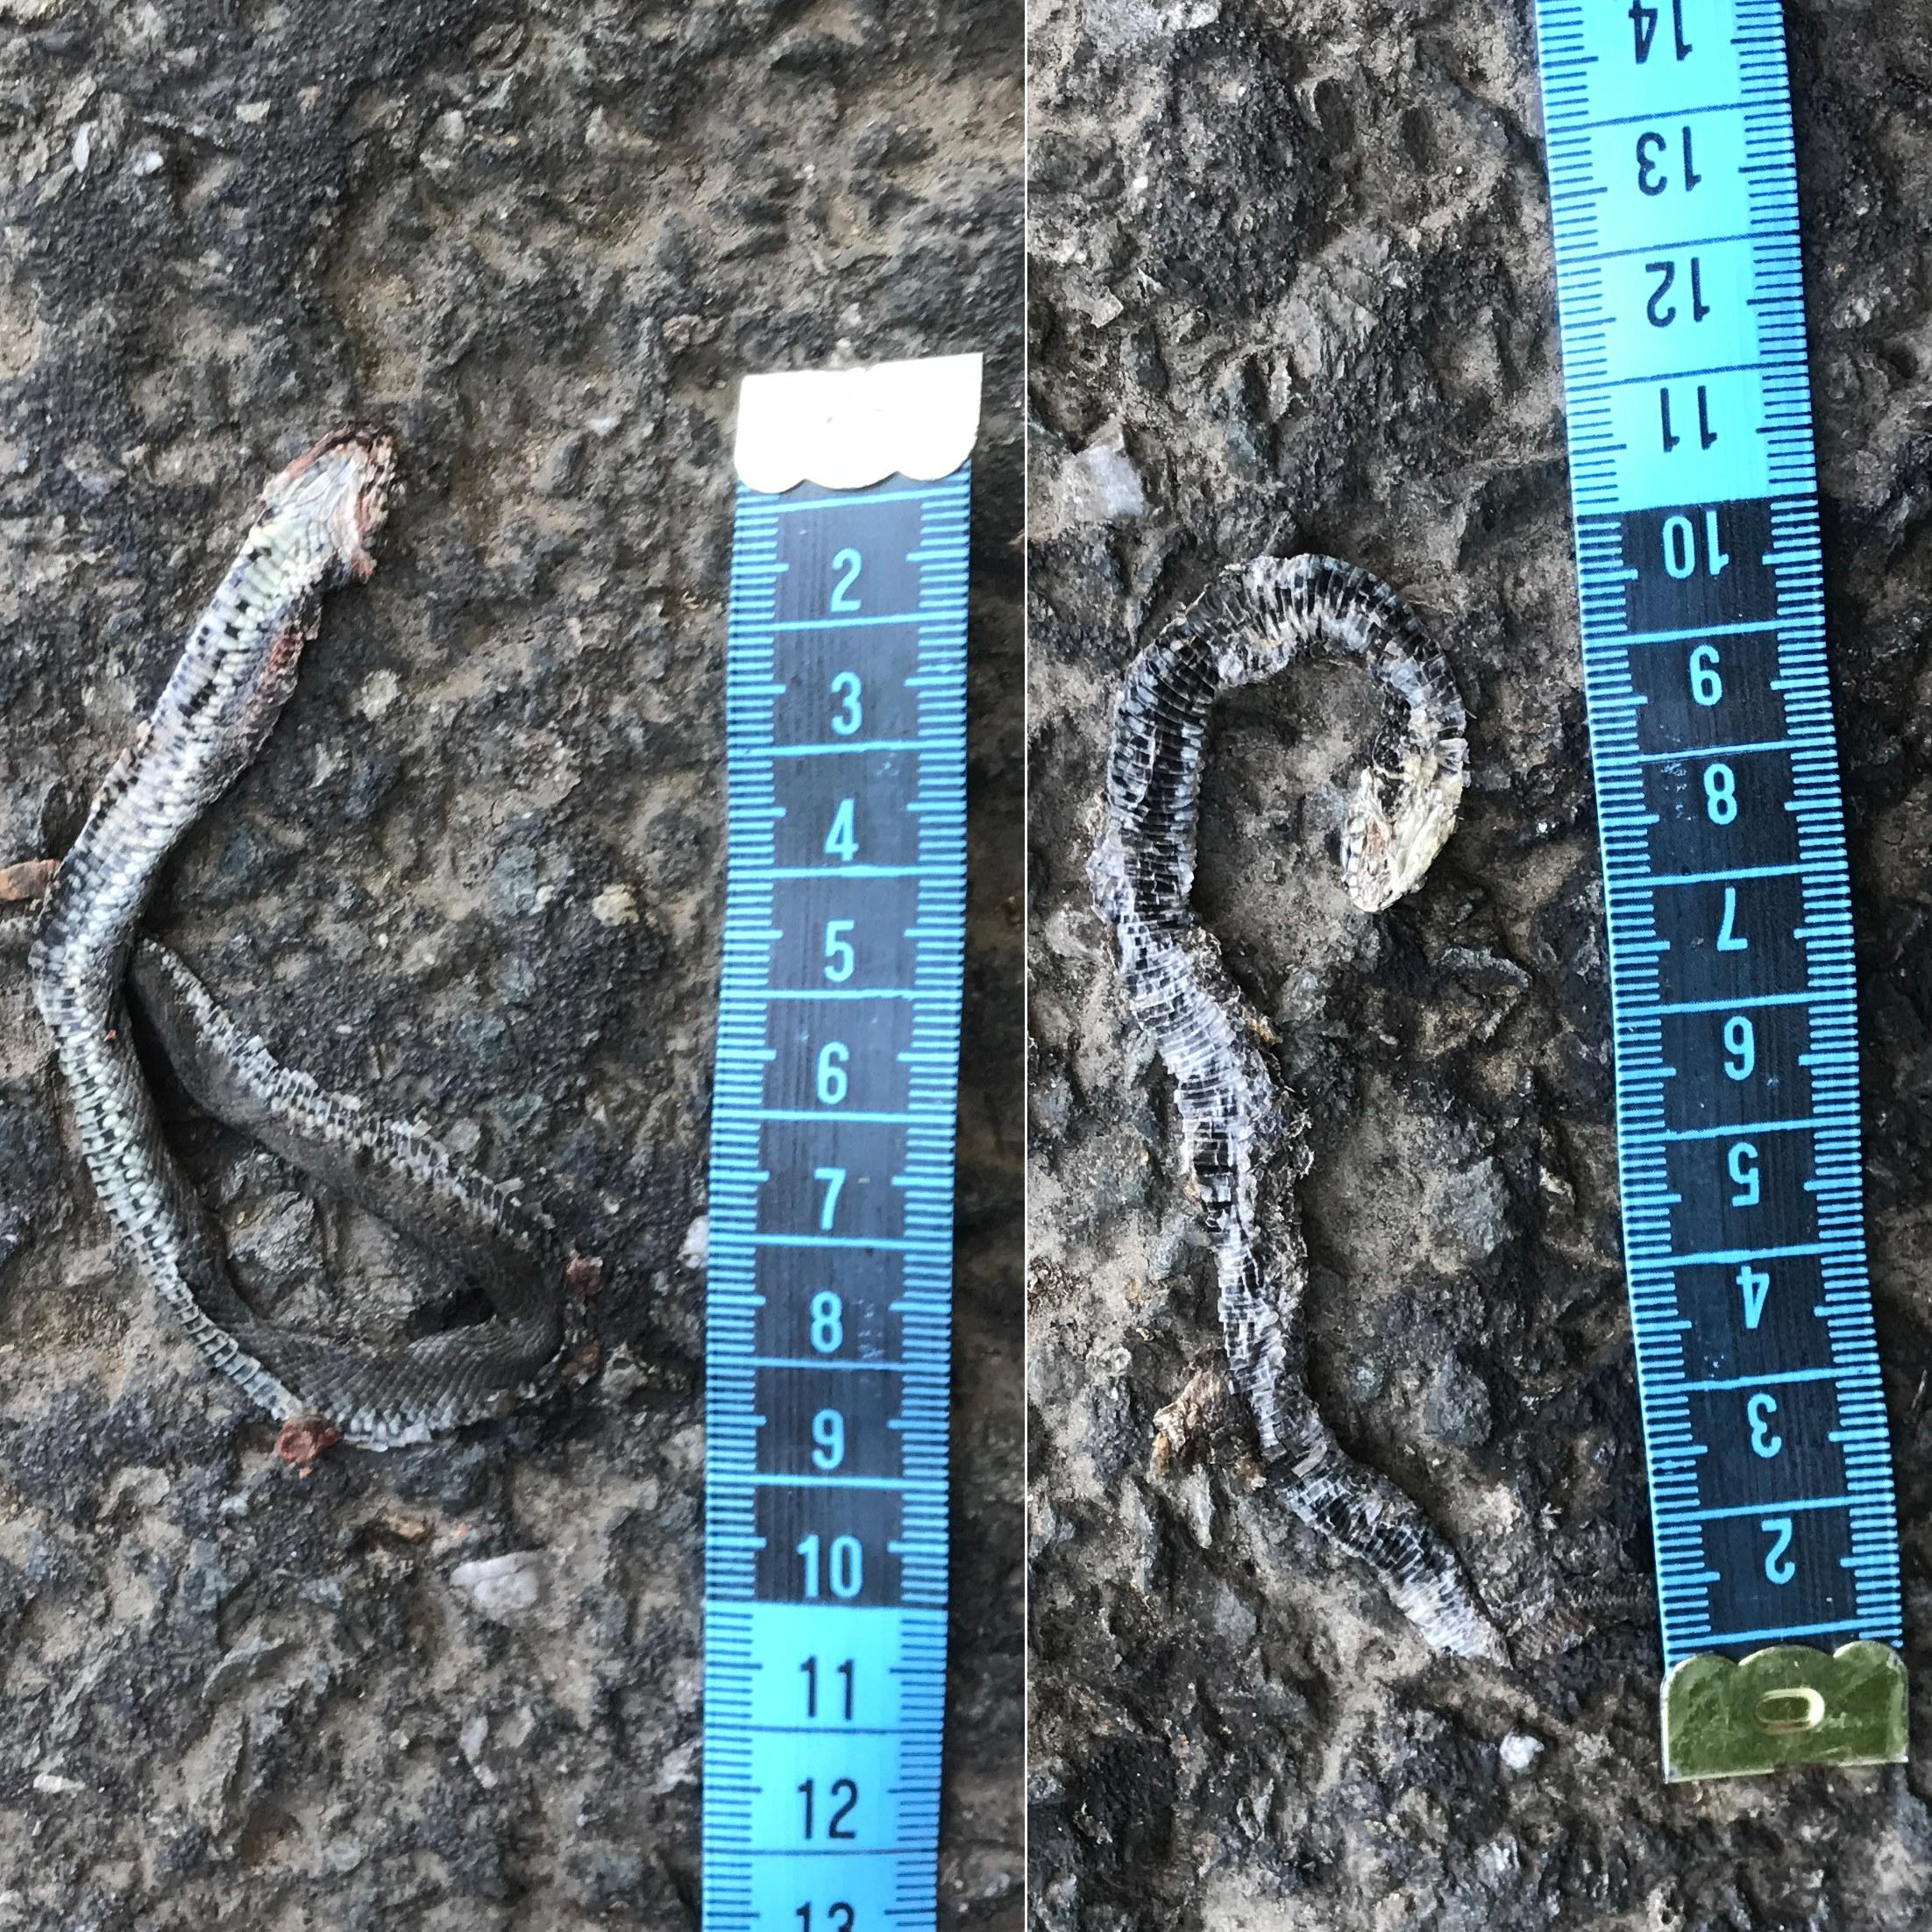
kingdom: Animalia
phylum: Chordata
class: Squamata
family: Colubridae
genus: Natrix
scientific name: Natrix natrix
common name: Grass snake
